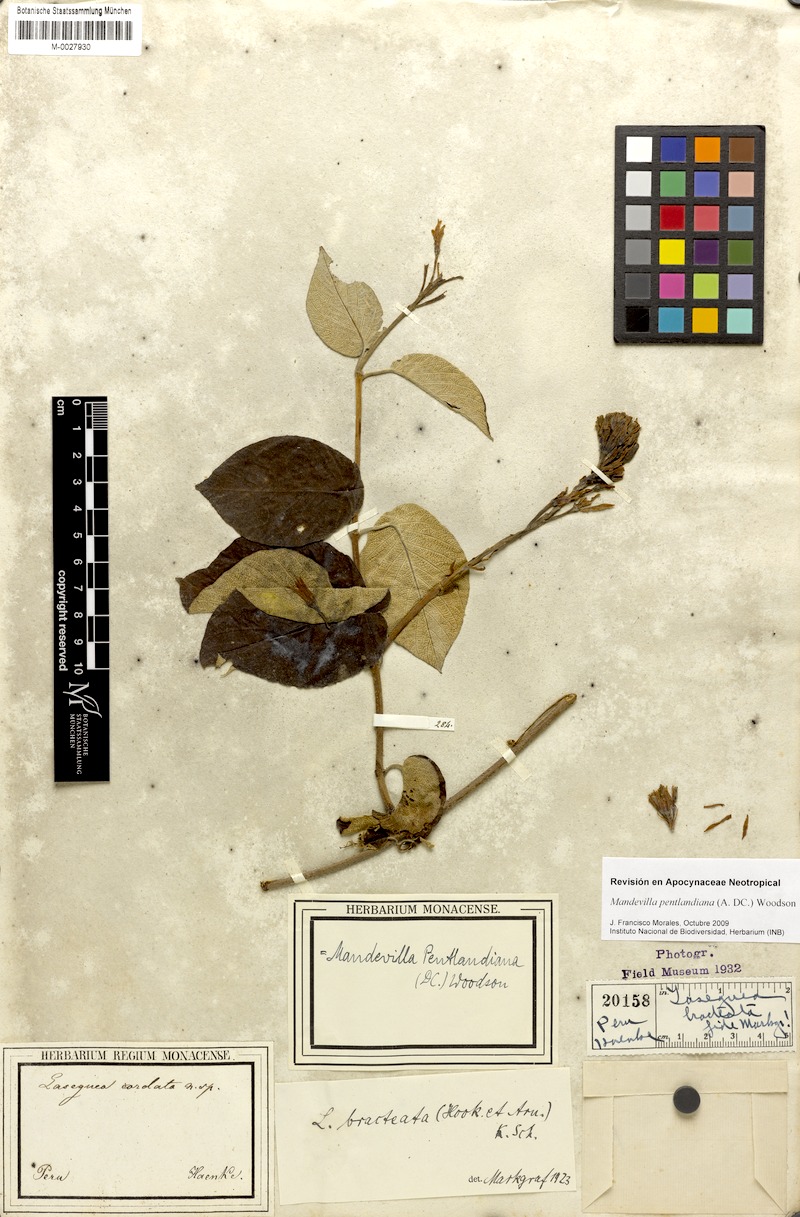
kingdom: Plantae
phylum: Tracheophyta
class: Magnoliopsida
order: Gentianales
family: Apocynaceae
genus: Mandevilla
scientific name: Mandevilla pentlandiana
